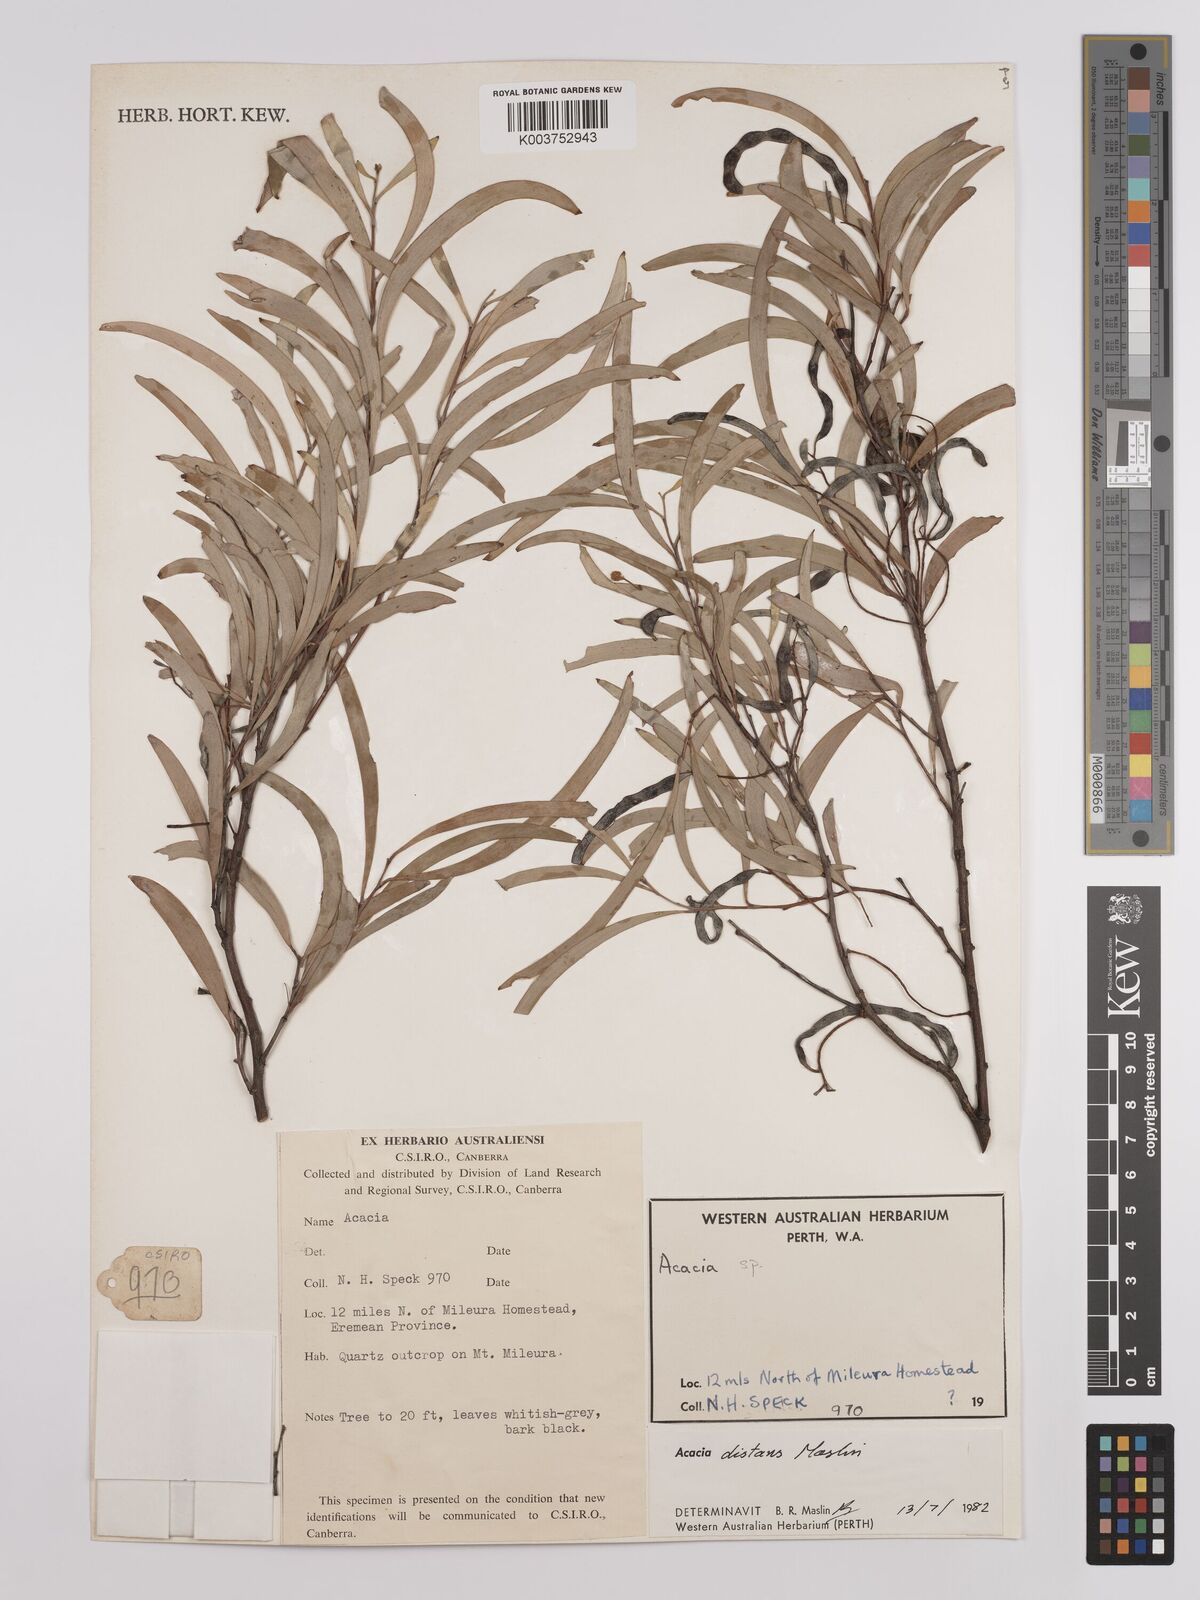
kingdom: Plantae
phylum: Tracheophyta
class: Magnoliopsida
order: Fabales
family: Fabaceae
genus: Acacia
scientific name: Acacia distans
